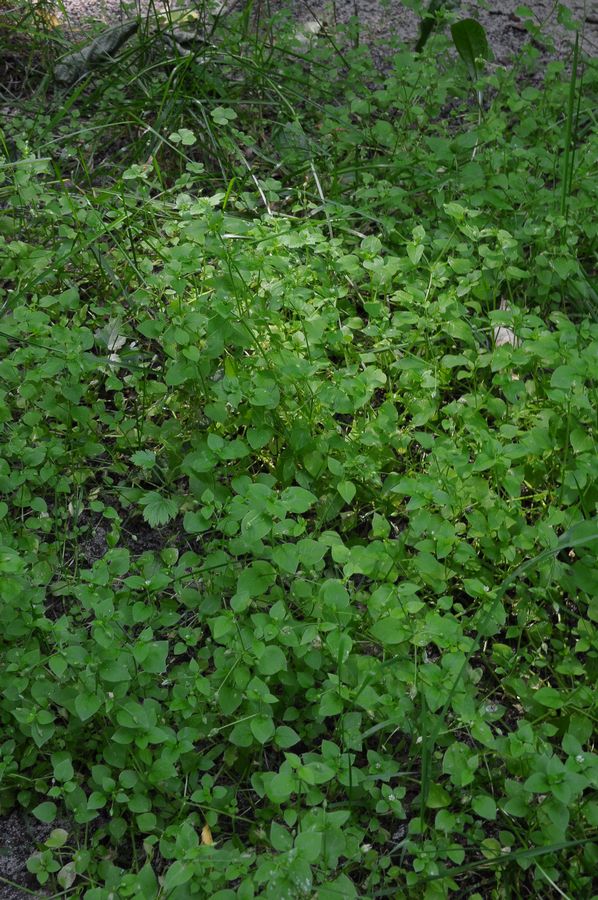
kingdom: Plantae
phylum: Tracheophyta
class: Magnoliopsida
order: Caryophyllales
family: Caryophyllaceae
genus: Stellaria
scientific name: Stellaria media
